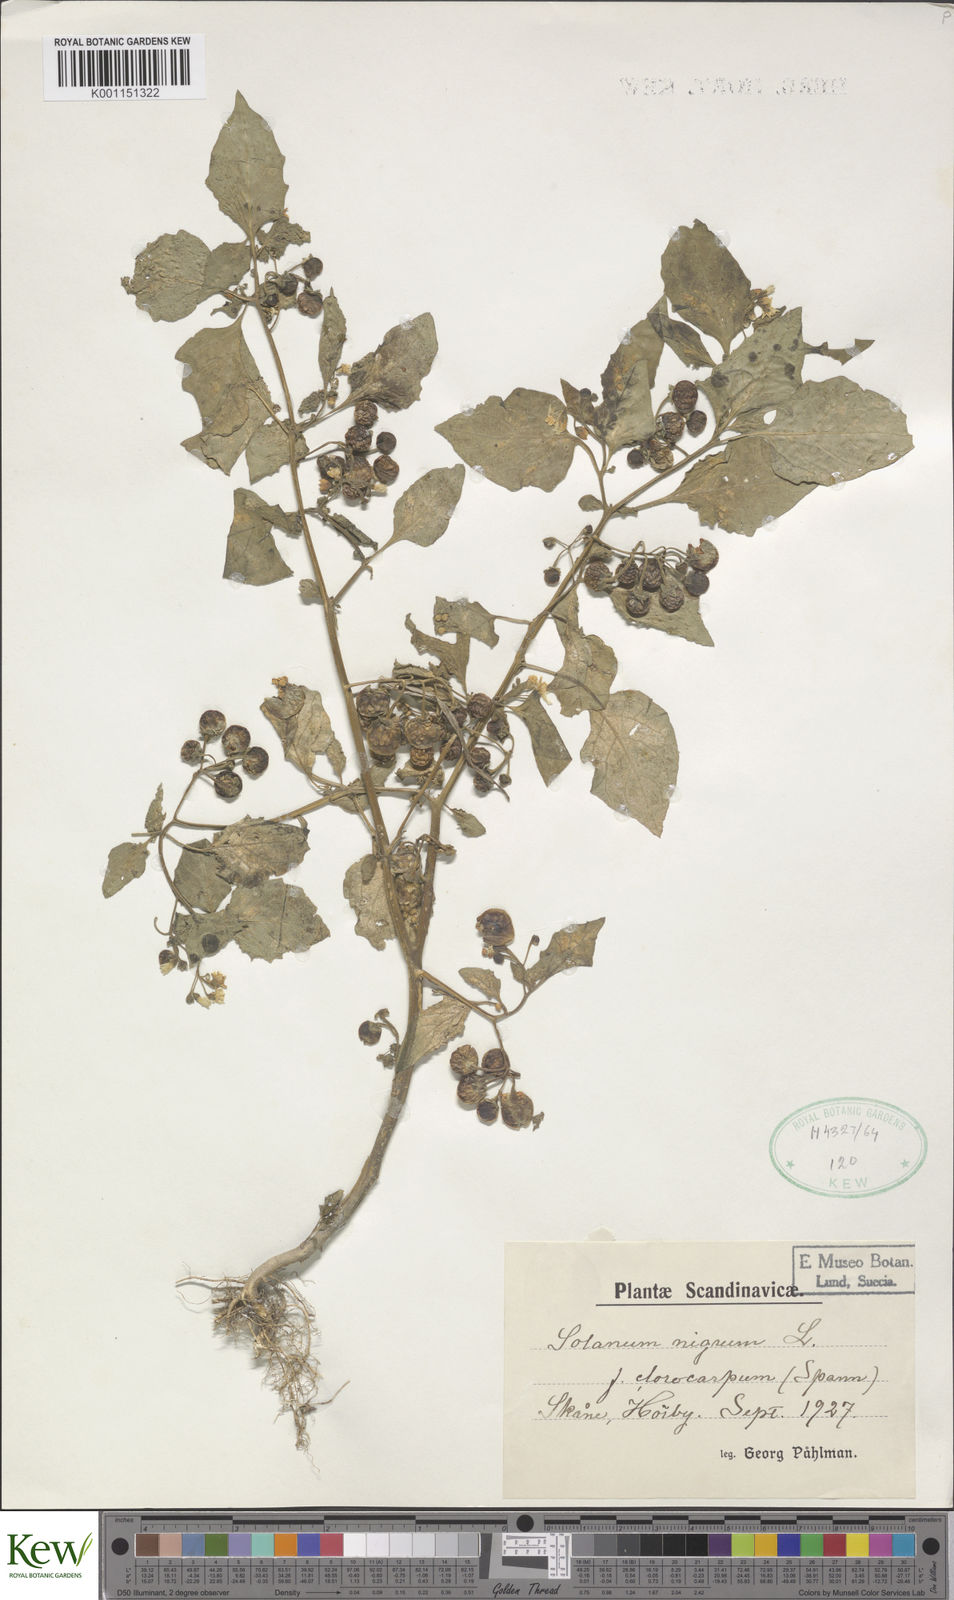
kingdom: Plantae
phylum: Tracheophyta
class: Magnoliopsida
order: Solanales
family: Solanaceae
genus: Solanum
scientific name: Solanum nigrum
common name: Black nightshade
